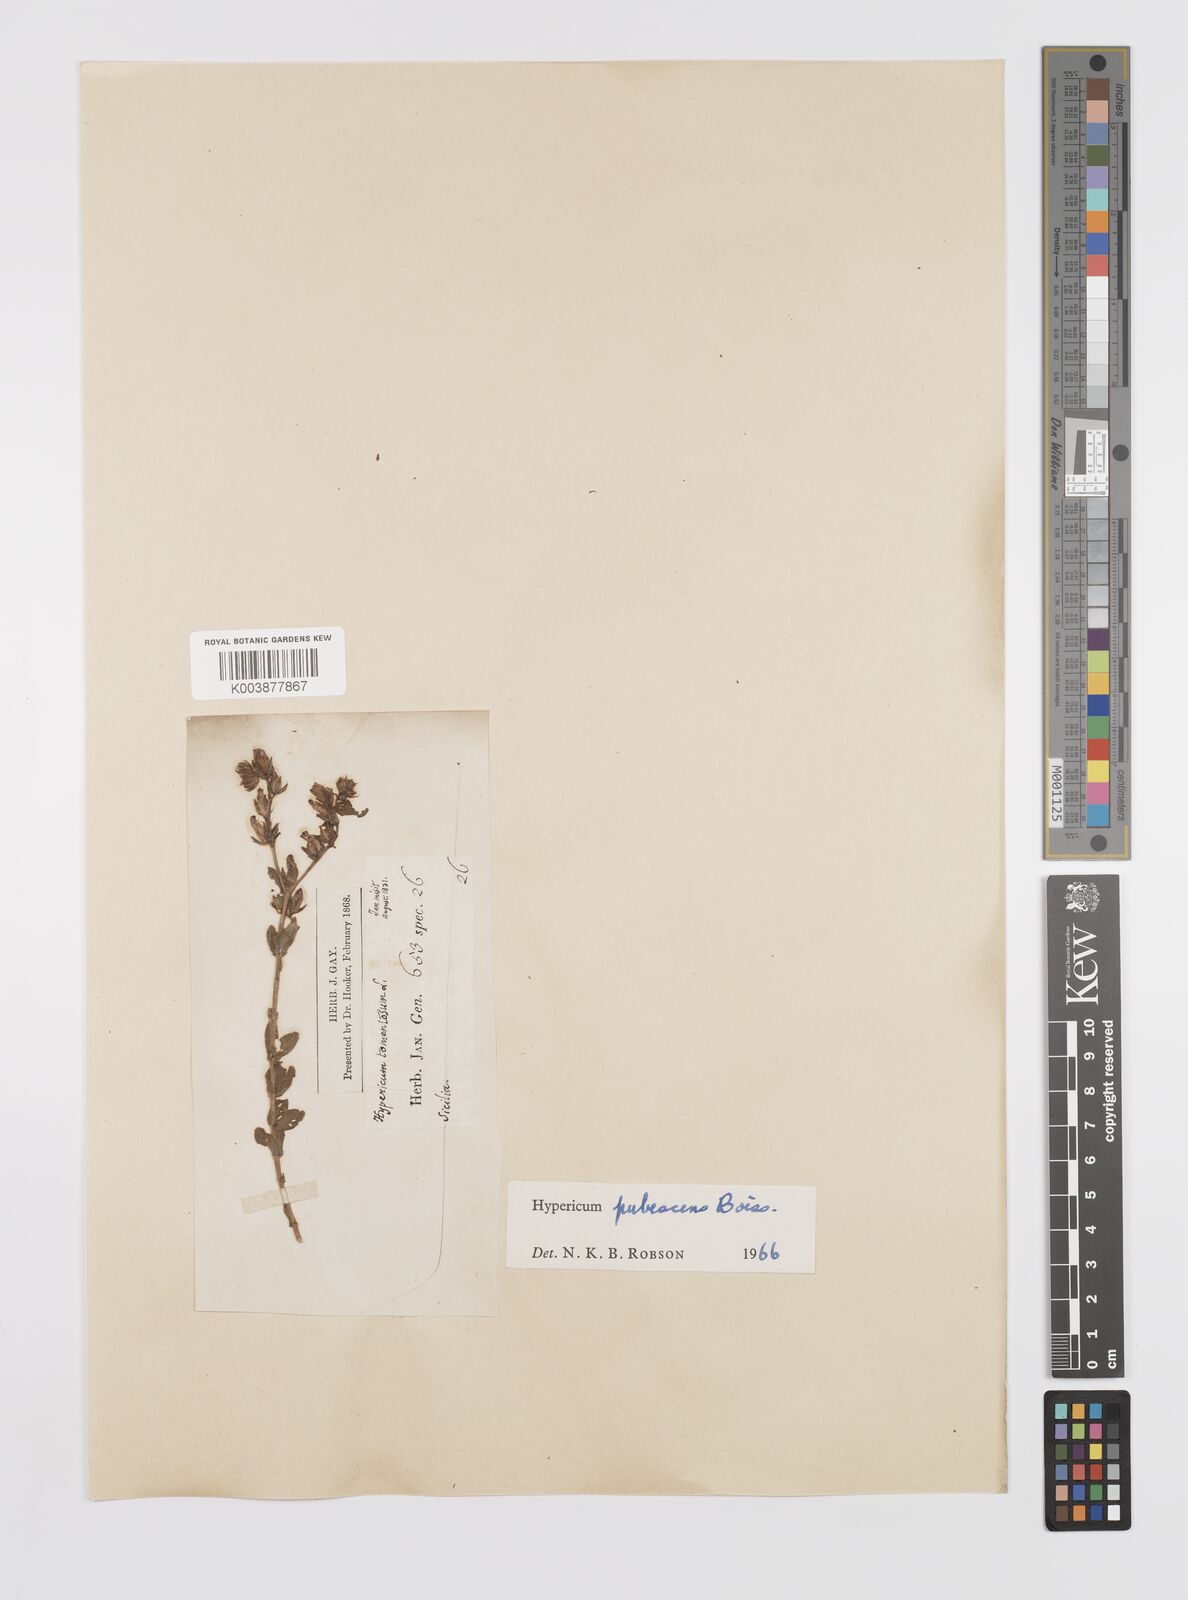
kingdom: Plantae
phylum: Tracheophyta
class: Magnoliopsida
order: Malpighiales
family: Hypericaceae
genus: Hypericum
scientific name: Hypericum pubescens
